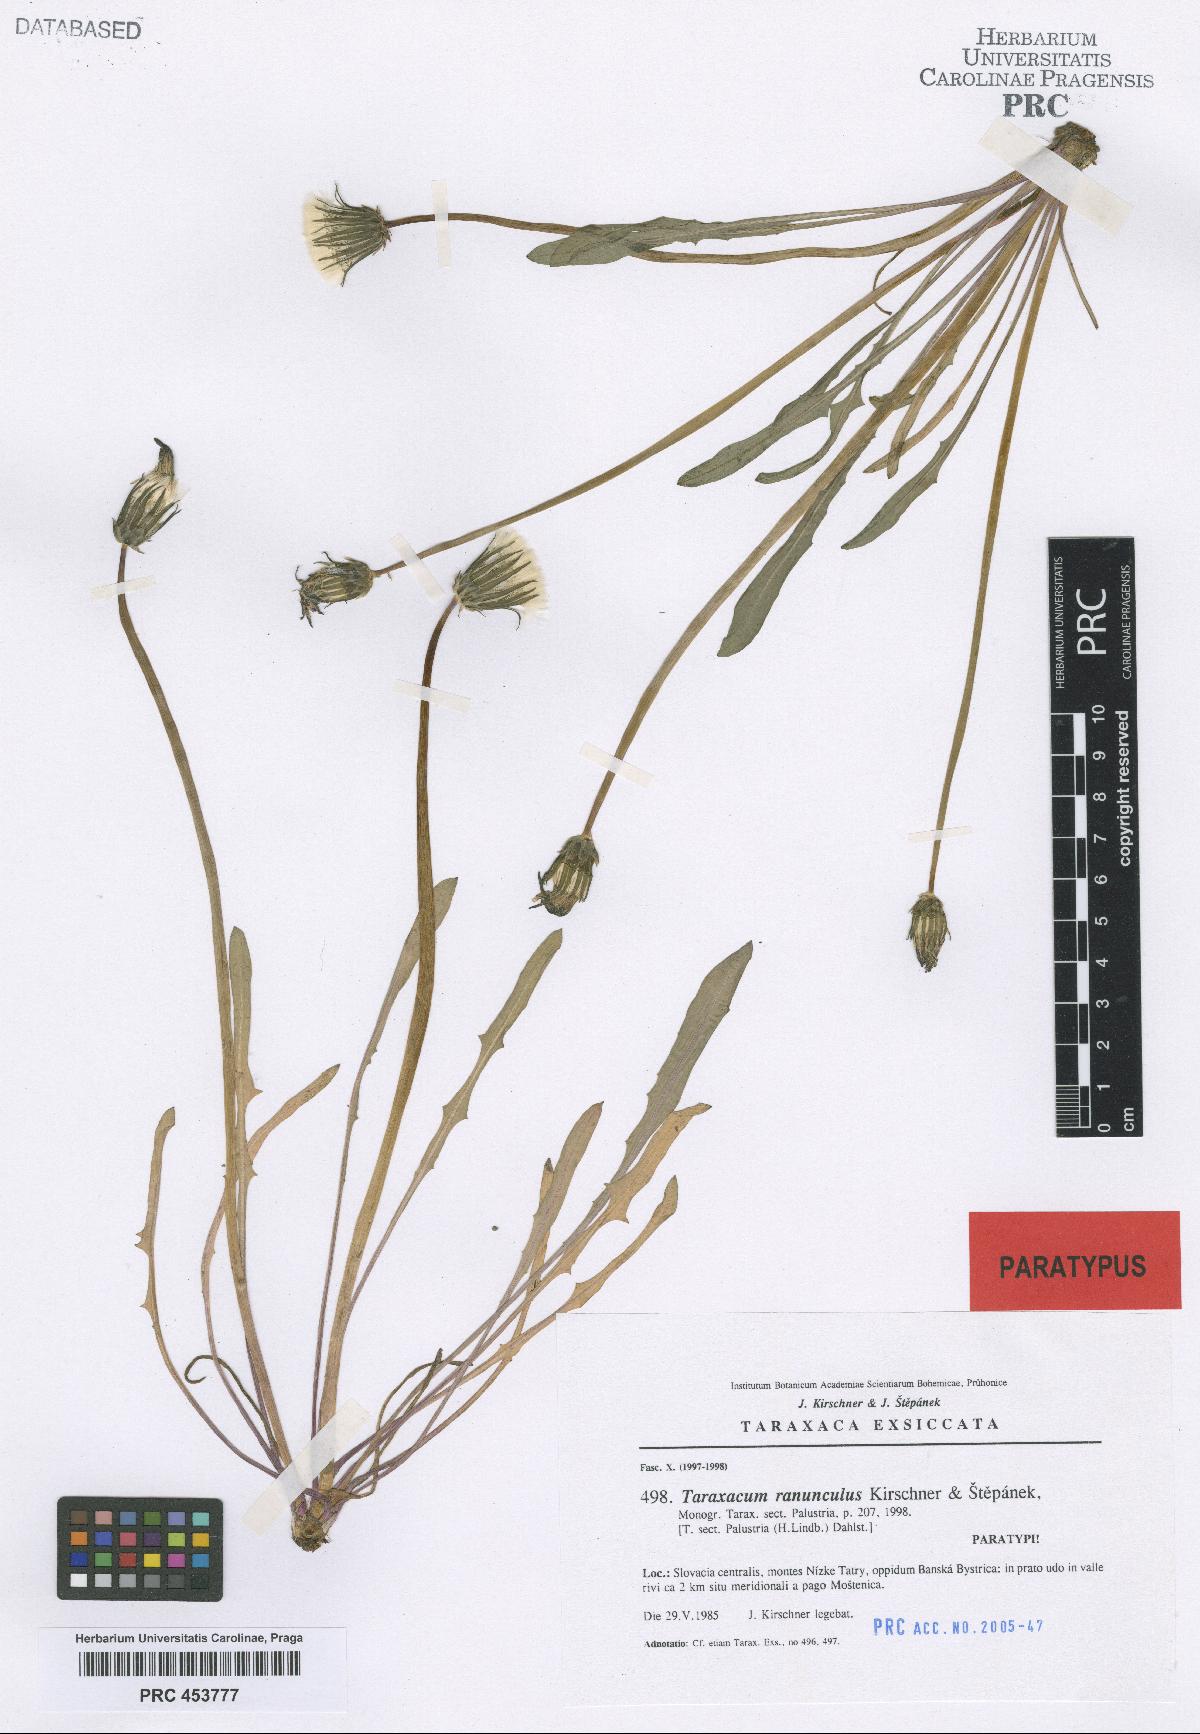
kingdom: Plantae
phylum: Tracheophyta
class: Magnoliopsida
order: Asterales
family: Asteraceae
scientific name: Asteraceae
